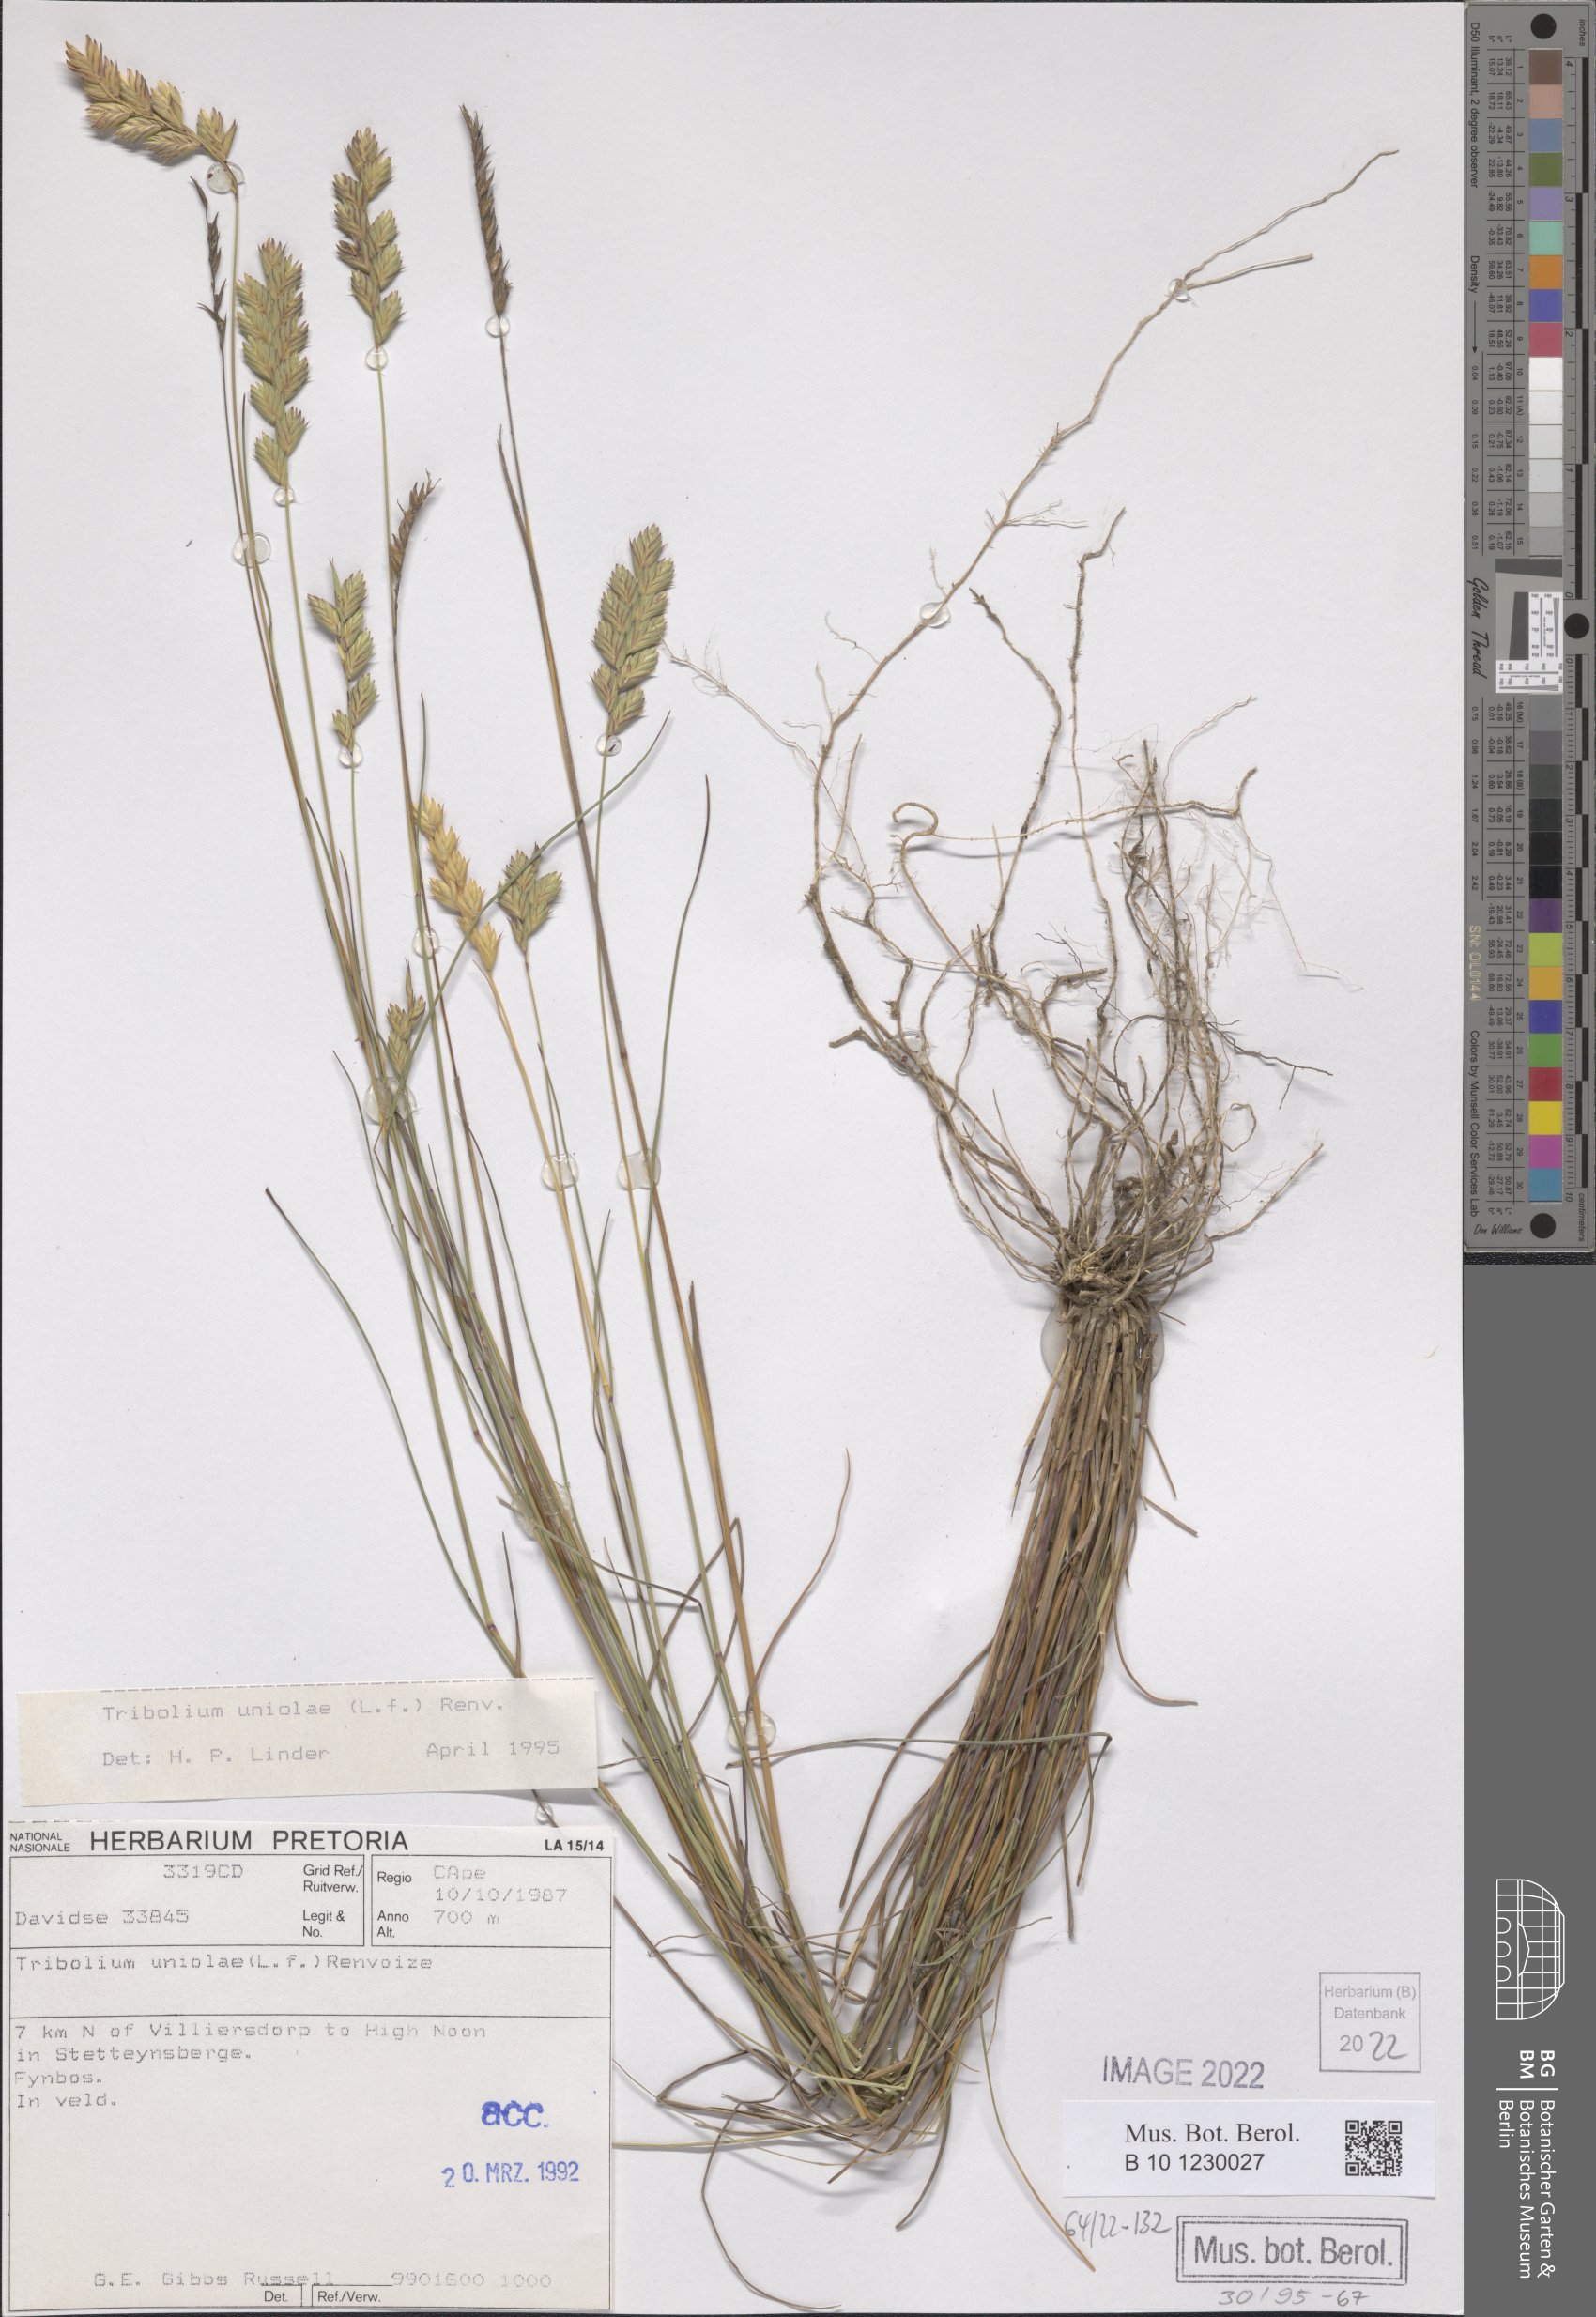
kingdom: Plantae
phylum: Tracheophyta
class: Liliopsida
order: Poales
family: Poaceae
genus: Tribolium
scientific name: Tribolium uniolae
